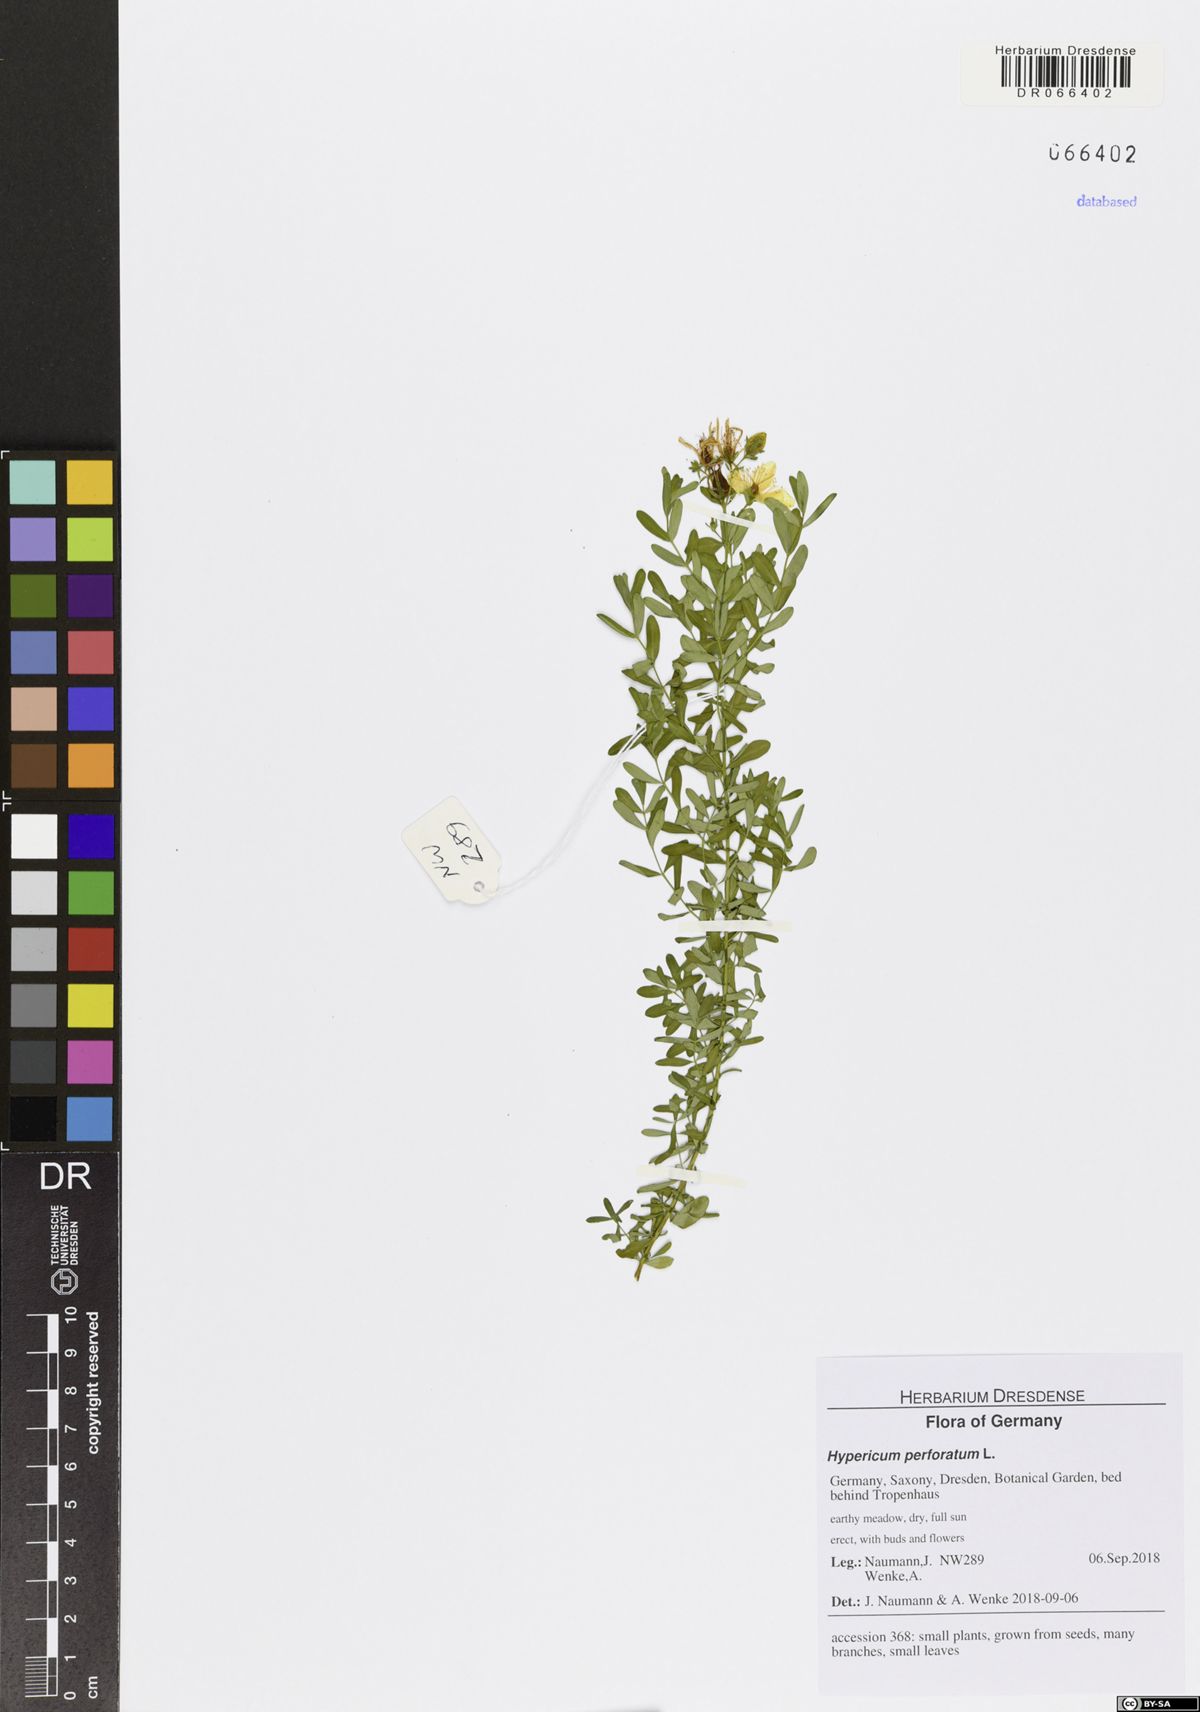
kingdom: Plantae
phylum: Tracheophyta
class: Magnoliopsida
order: Malpighiales
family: Hypericaceae
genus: Hypericum
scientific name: Hypericum perforatum
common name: Common st. johnswort
